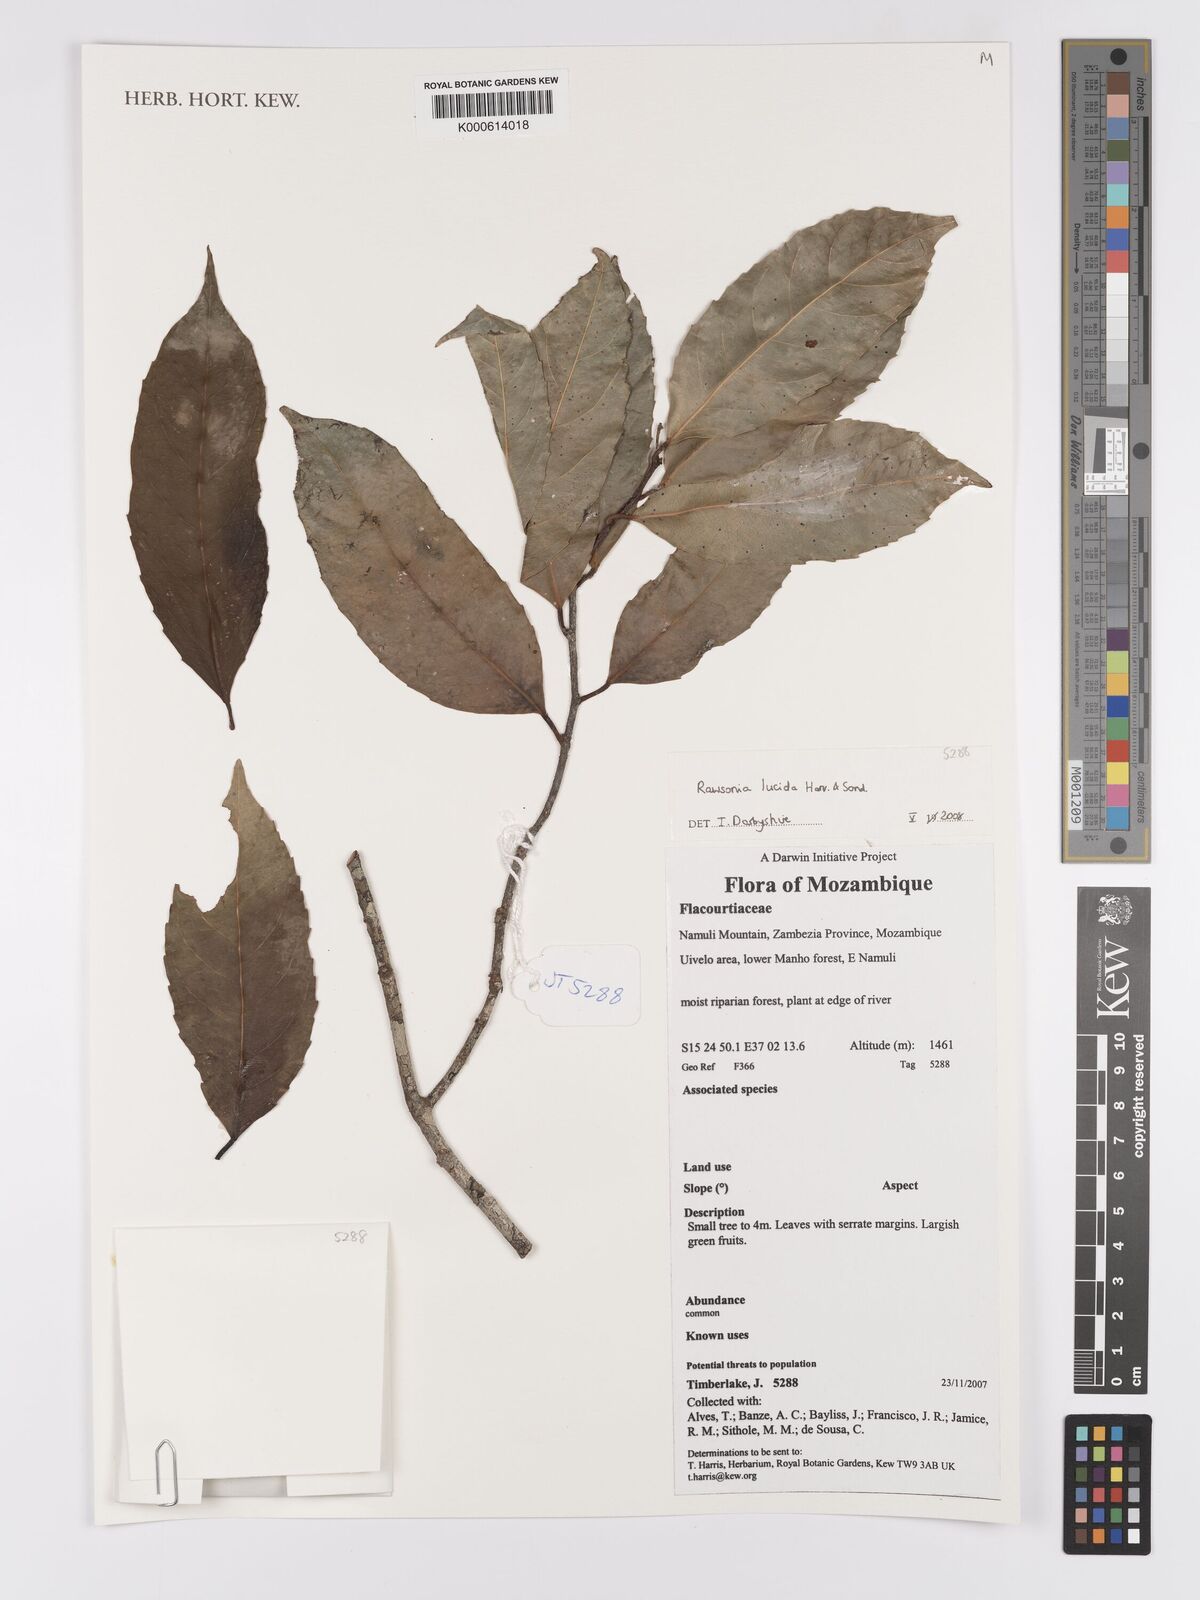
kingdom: Plantae
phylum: Tracheophyta
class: Magnoliopsida
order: Malpighiales
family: Achariaceae
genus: Rawsonia
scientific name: Rawsonia lucida
